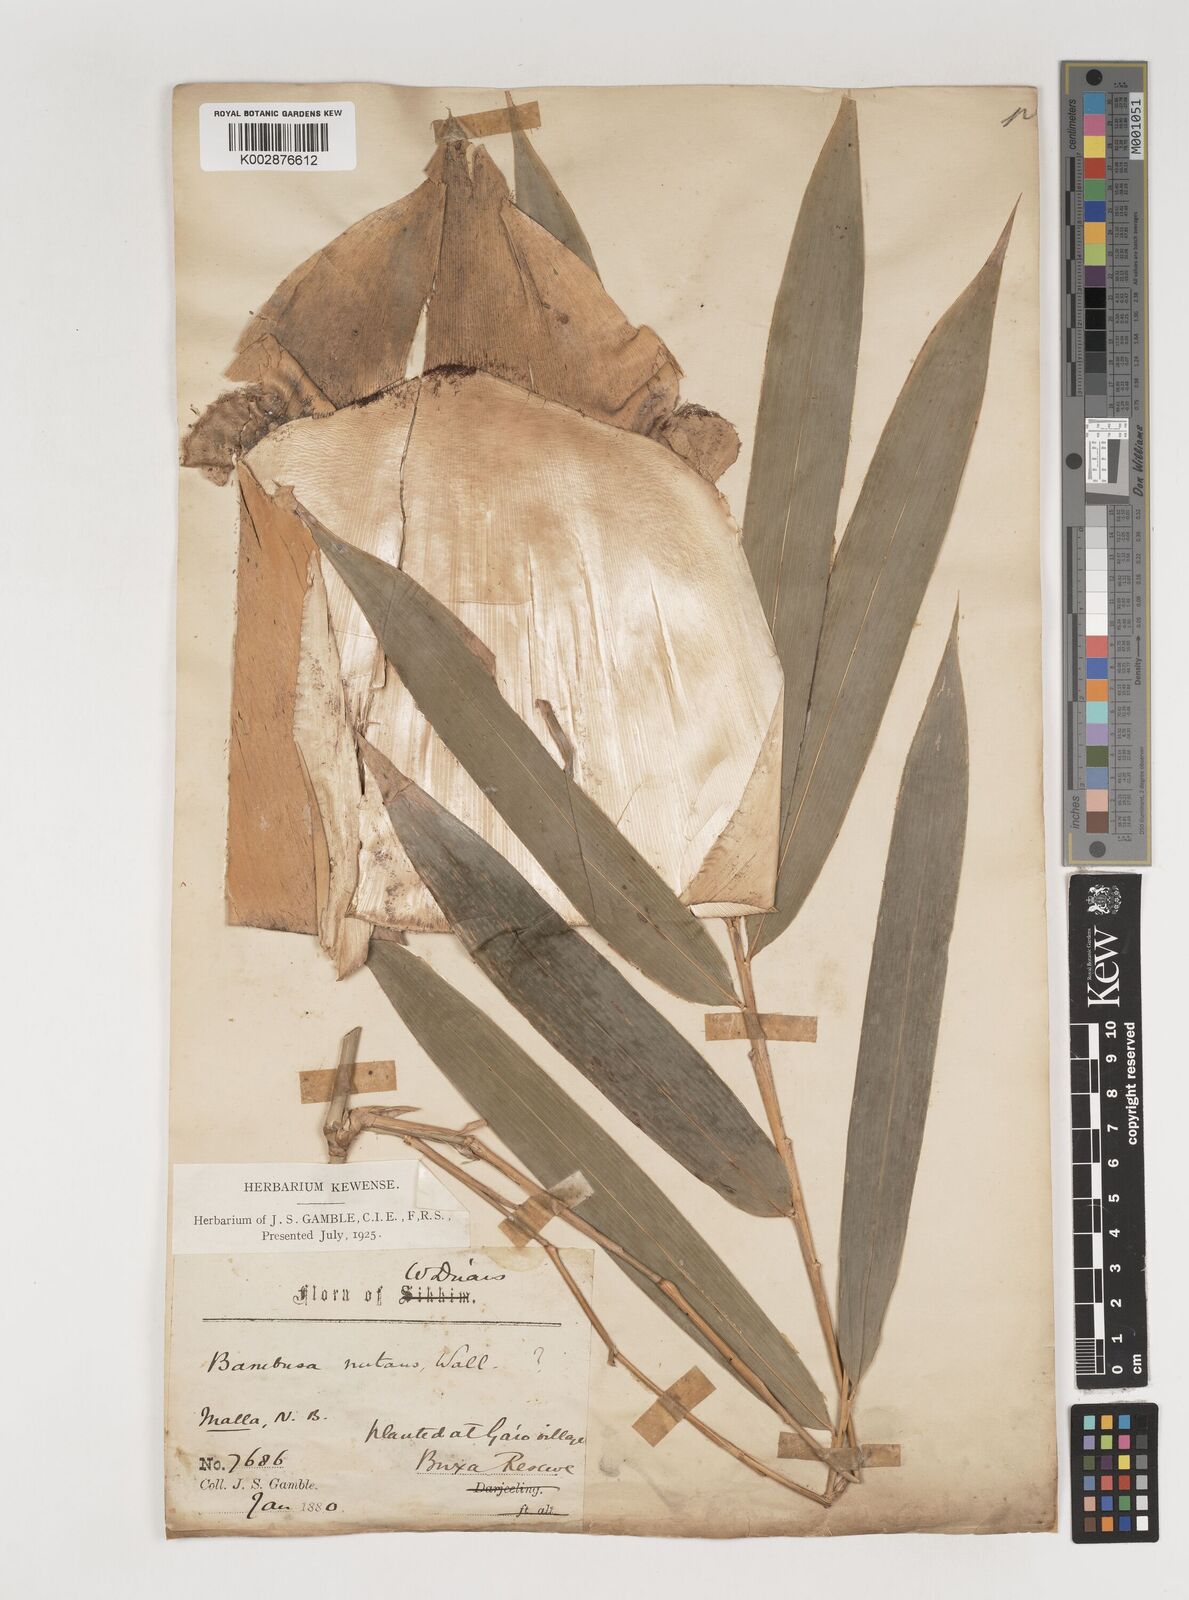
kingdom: Plantae
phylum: Tracheophyta
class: Liliopsida
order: Poales
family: Poaceae
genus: Bambusa
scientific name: Bambusa nutans
